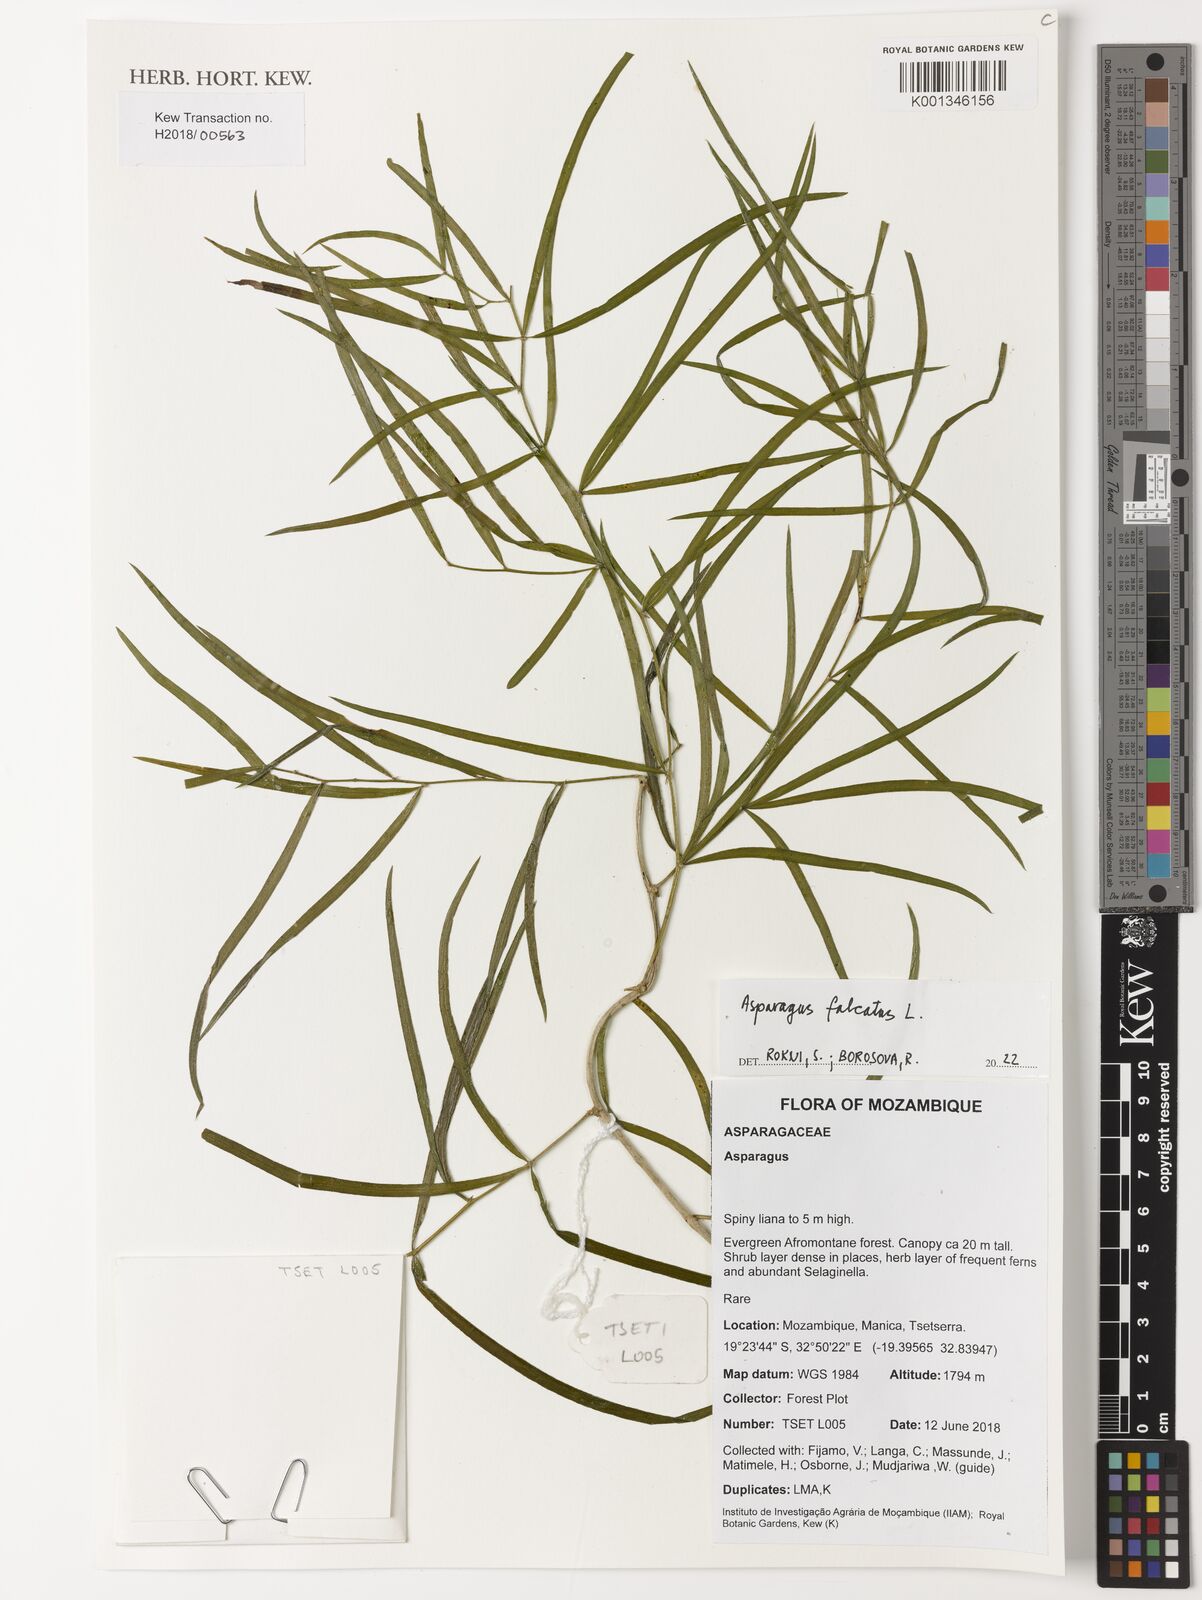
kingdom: Plantae
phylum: Tracheophyta
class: Liliopsida
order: Asparagales
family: Asparagaceae
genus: Asparagus
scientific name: Asparagus falcatus
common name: Asparagus
